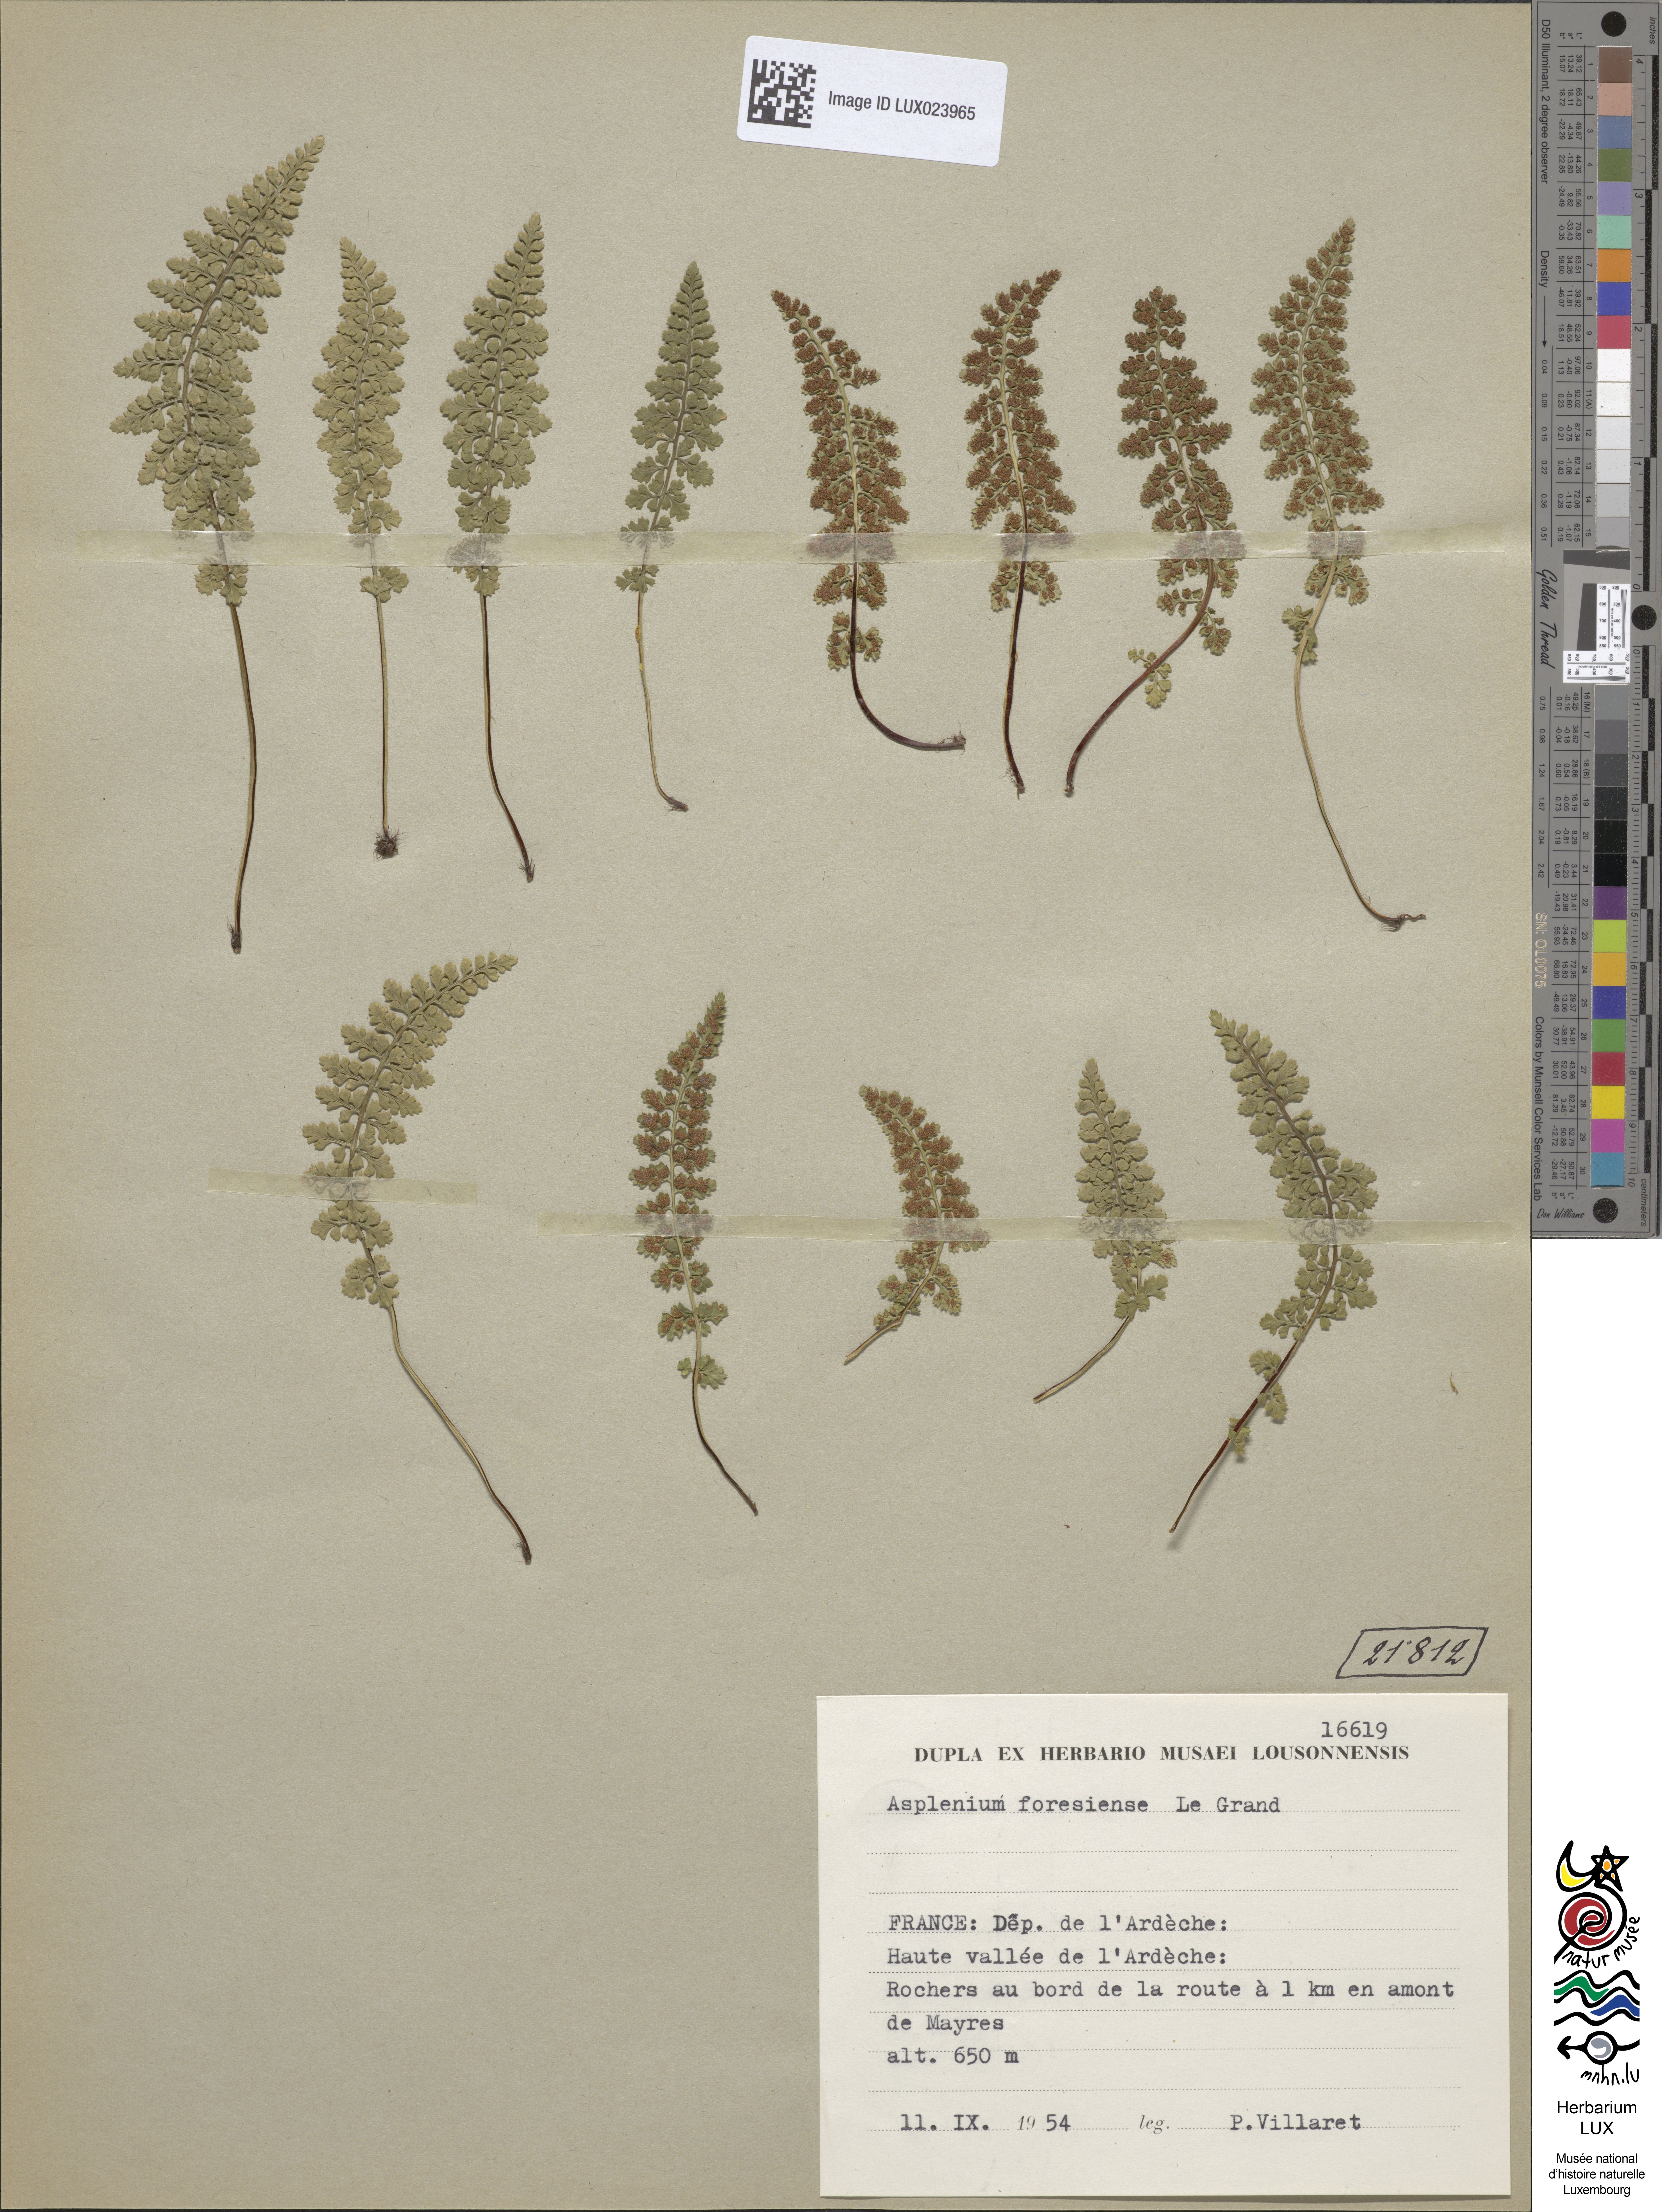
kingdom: Plantae
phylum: Tracheophyta
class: Polypodiopsida
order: Polypodiales
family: Aspleniaceae
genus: Asplenium
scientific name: Asplenium foreziense
